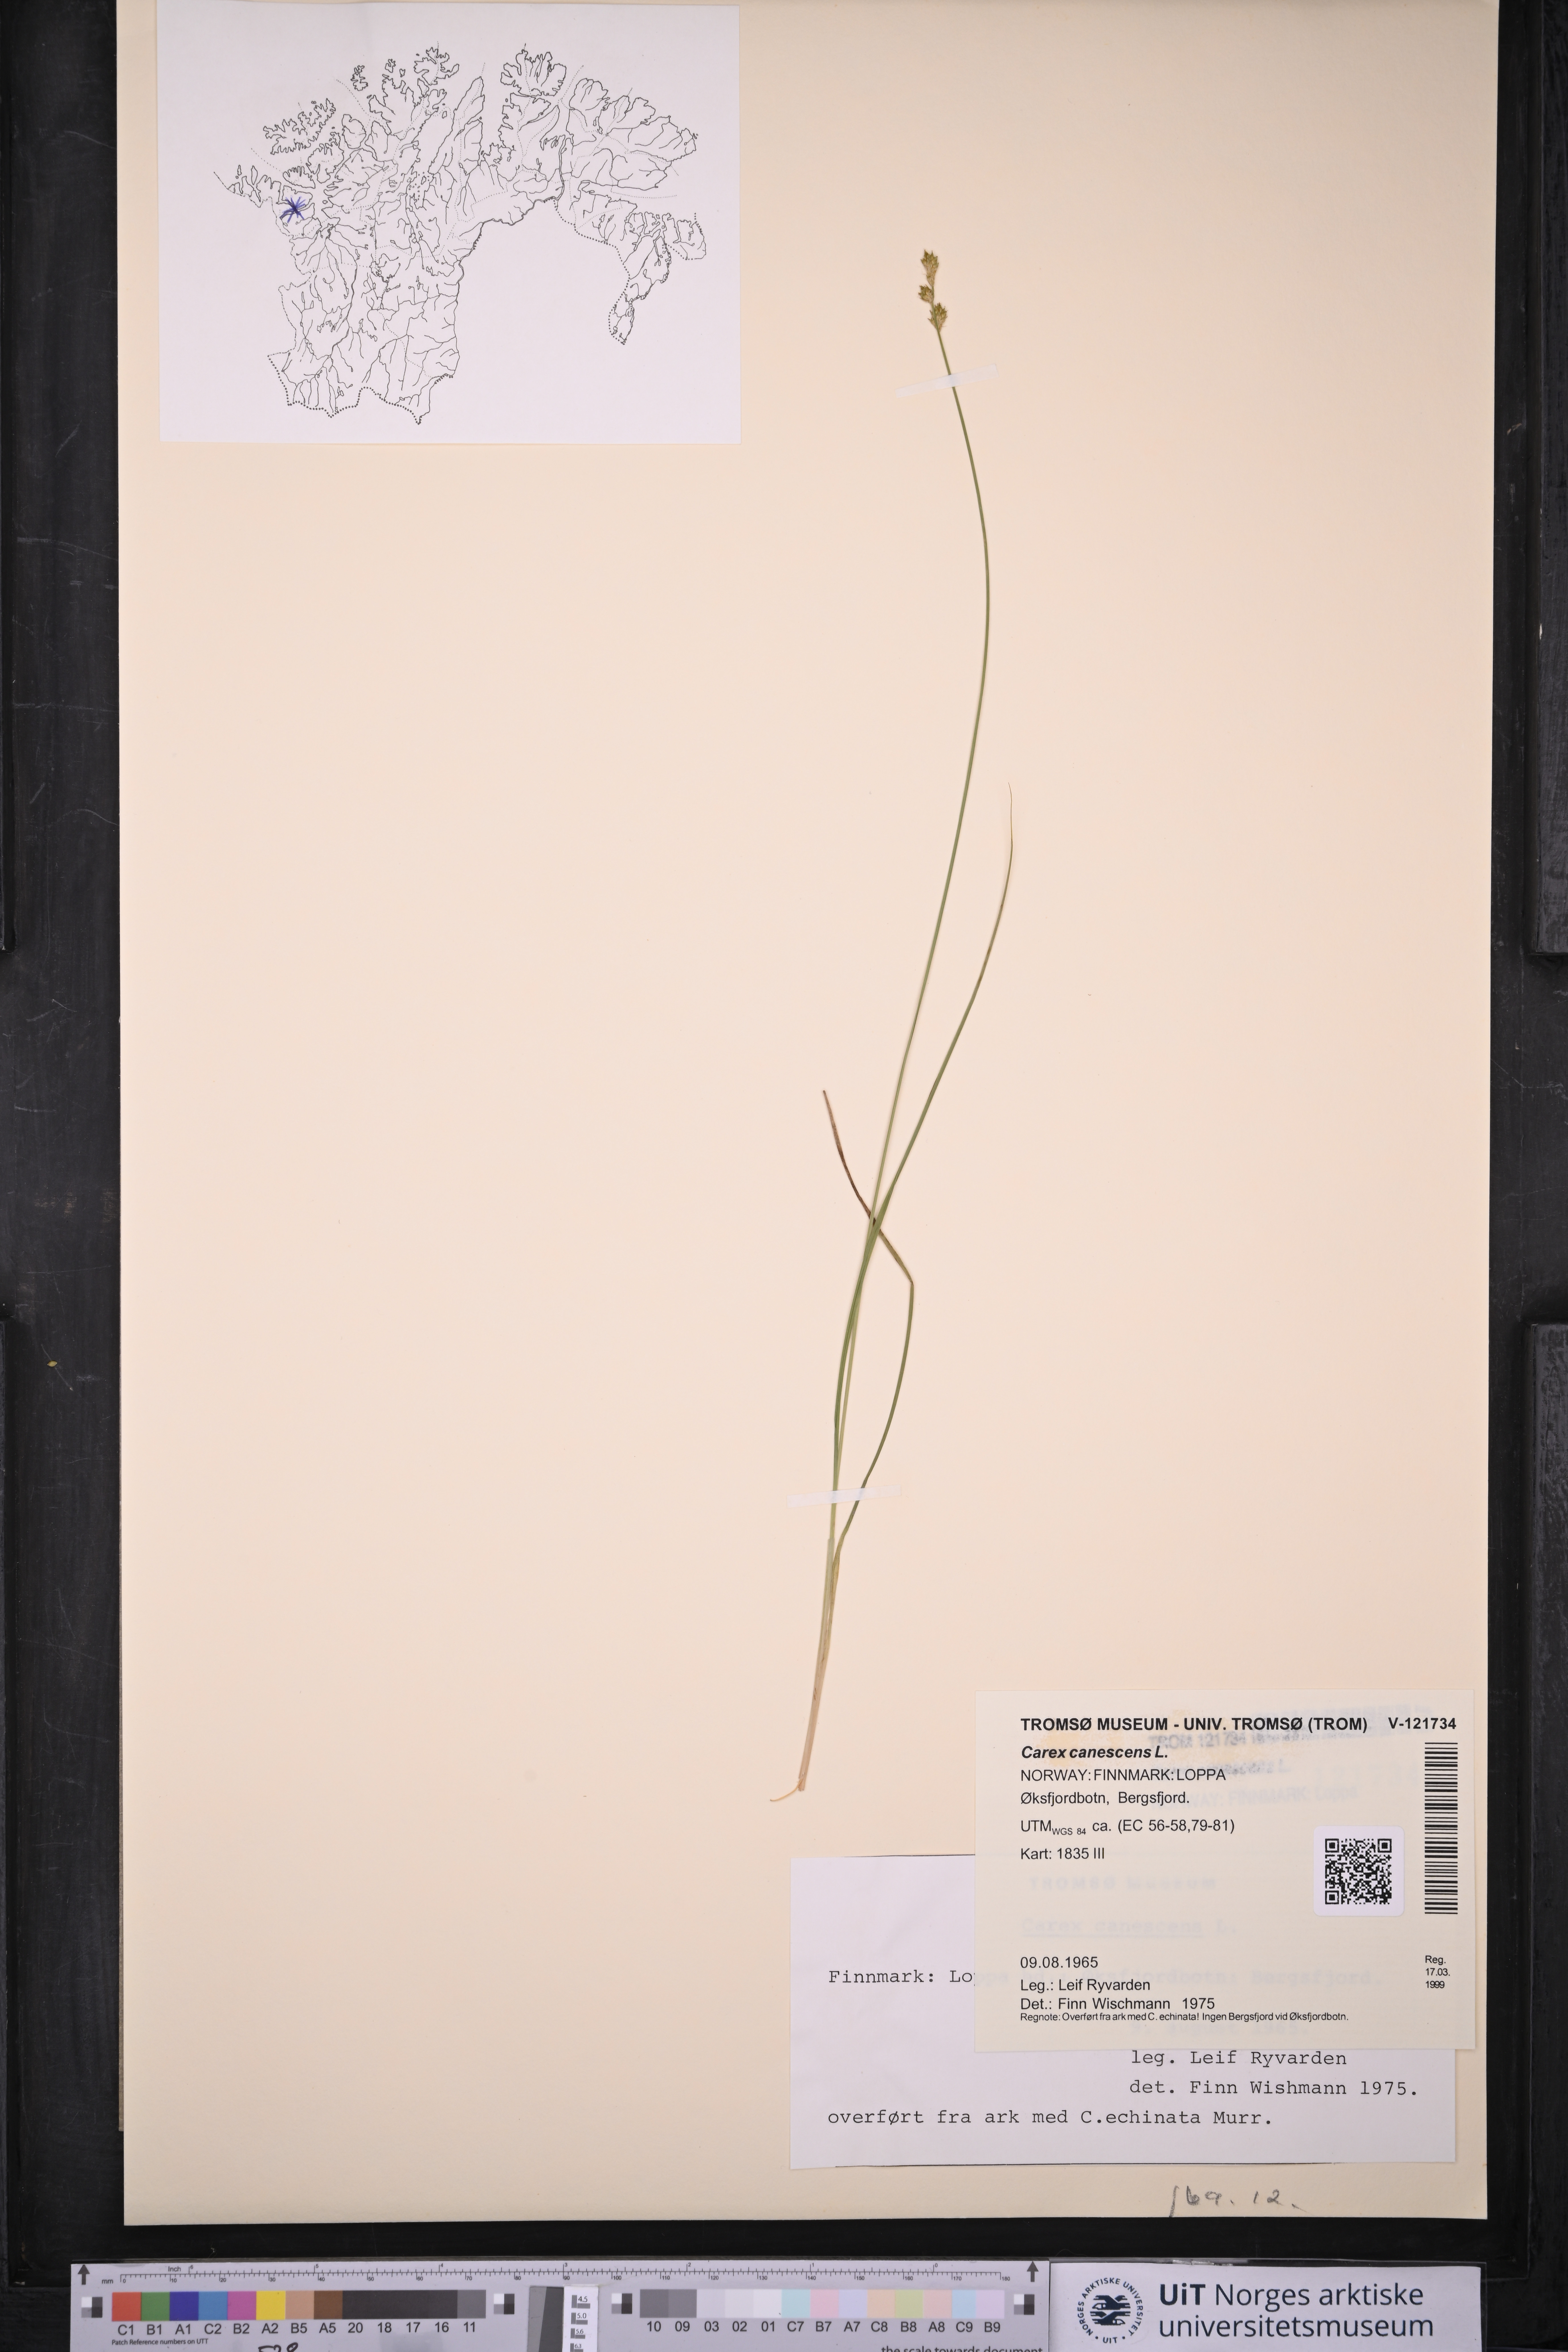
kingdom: Plantae
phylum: Tracheophyta
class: Liliopsida
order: Poales
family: Cyperaceae
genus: Carex
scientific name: Carex canescens
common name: White sedge
